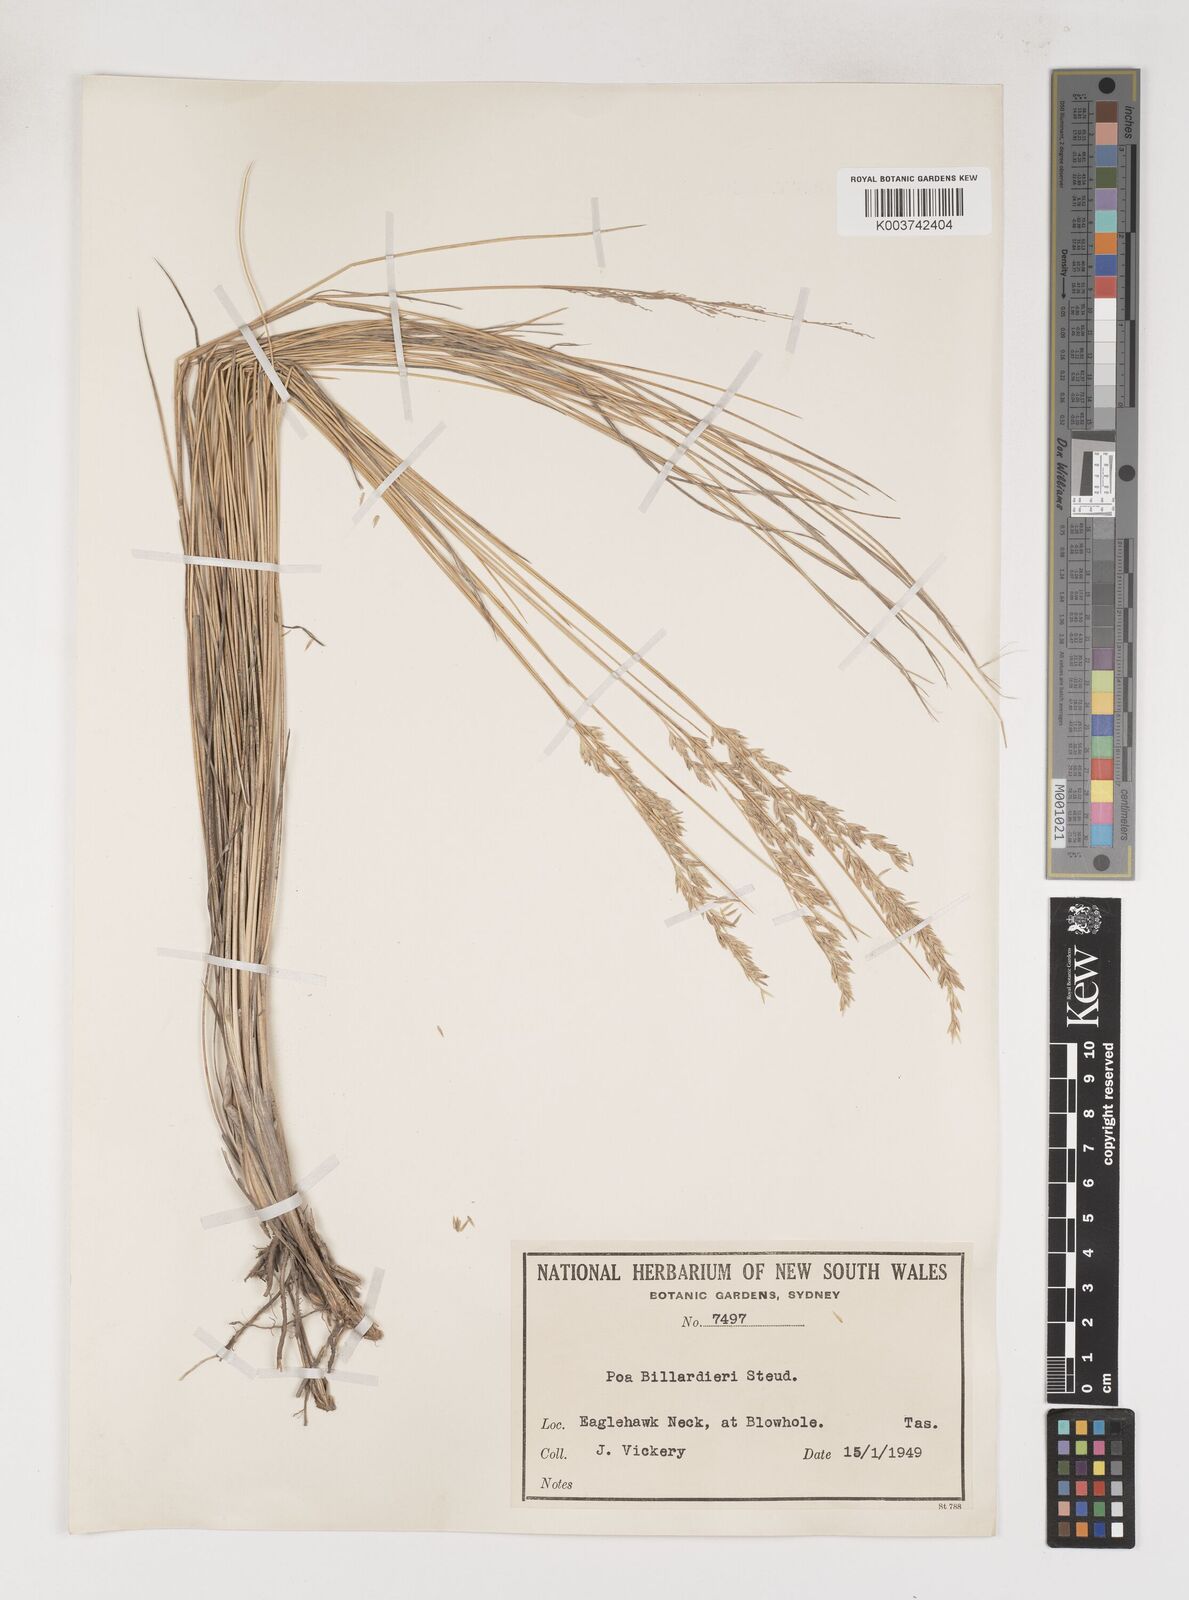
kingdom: Plantae
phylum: Tracheophyta
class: Liliopsida
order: Poales
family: Poaceae
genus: Poa
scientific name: Poa poiformis
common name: Tussock poa
